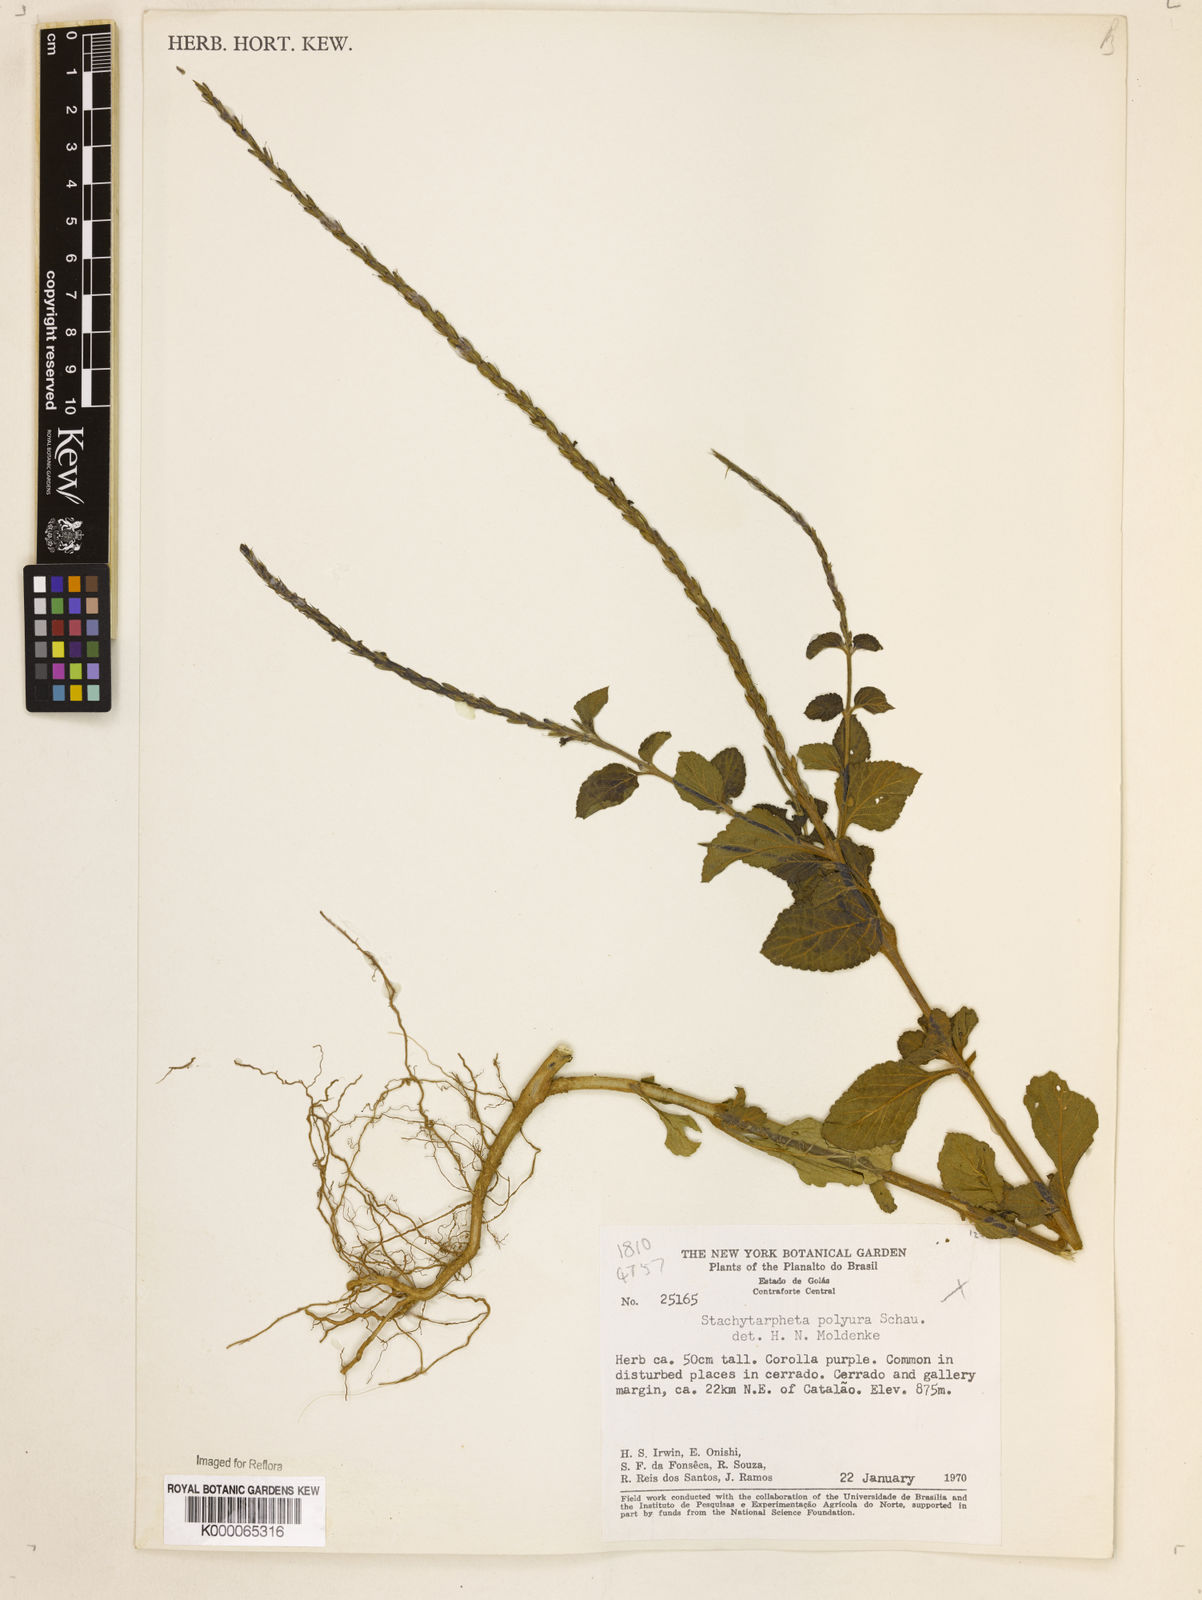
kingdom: Plantae
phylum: Tracheophyta
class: Magnoliopsida
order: Lamiales
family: Verbenaceae
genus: Stachytarpheta
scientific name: Stachytarpheta polyura
